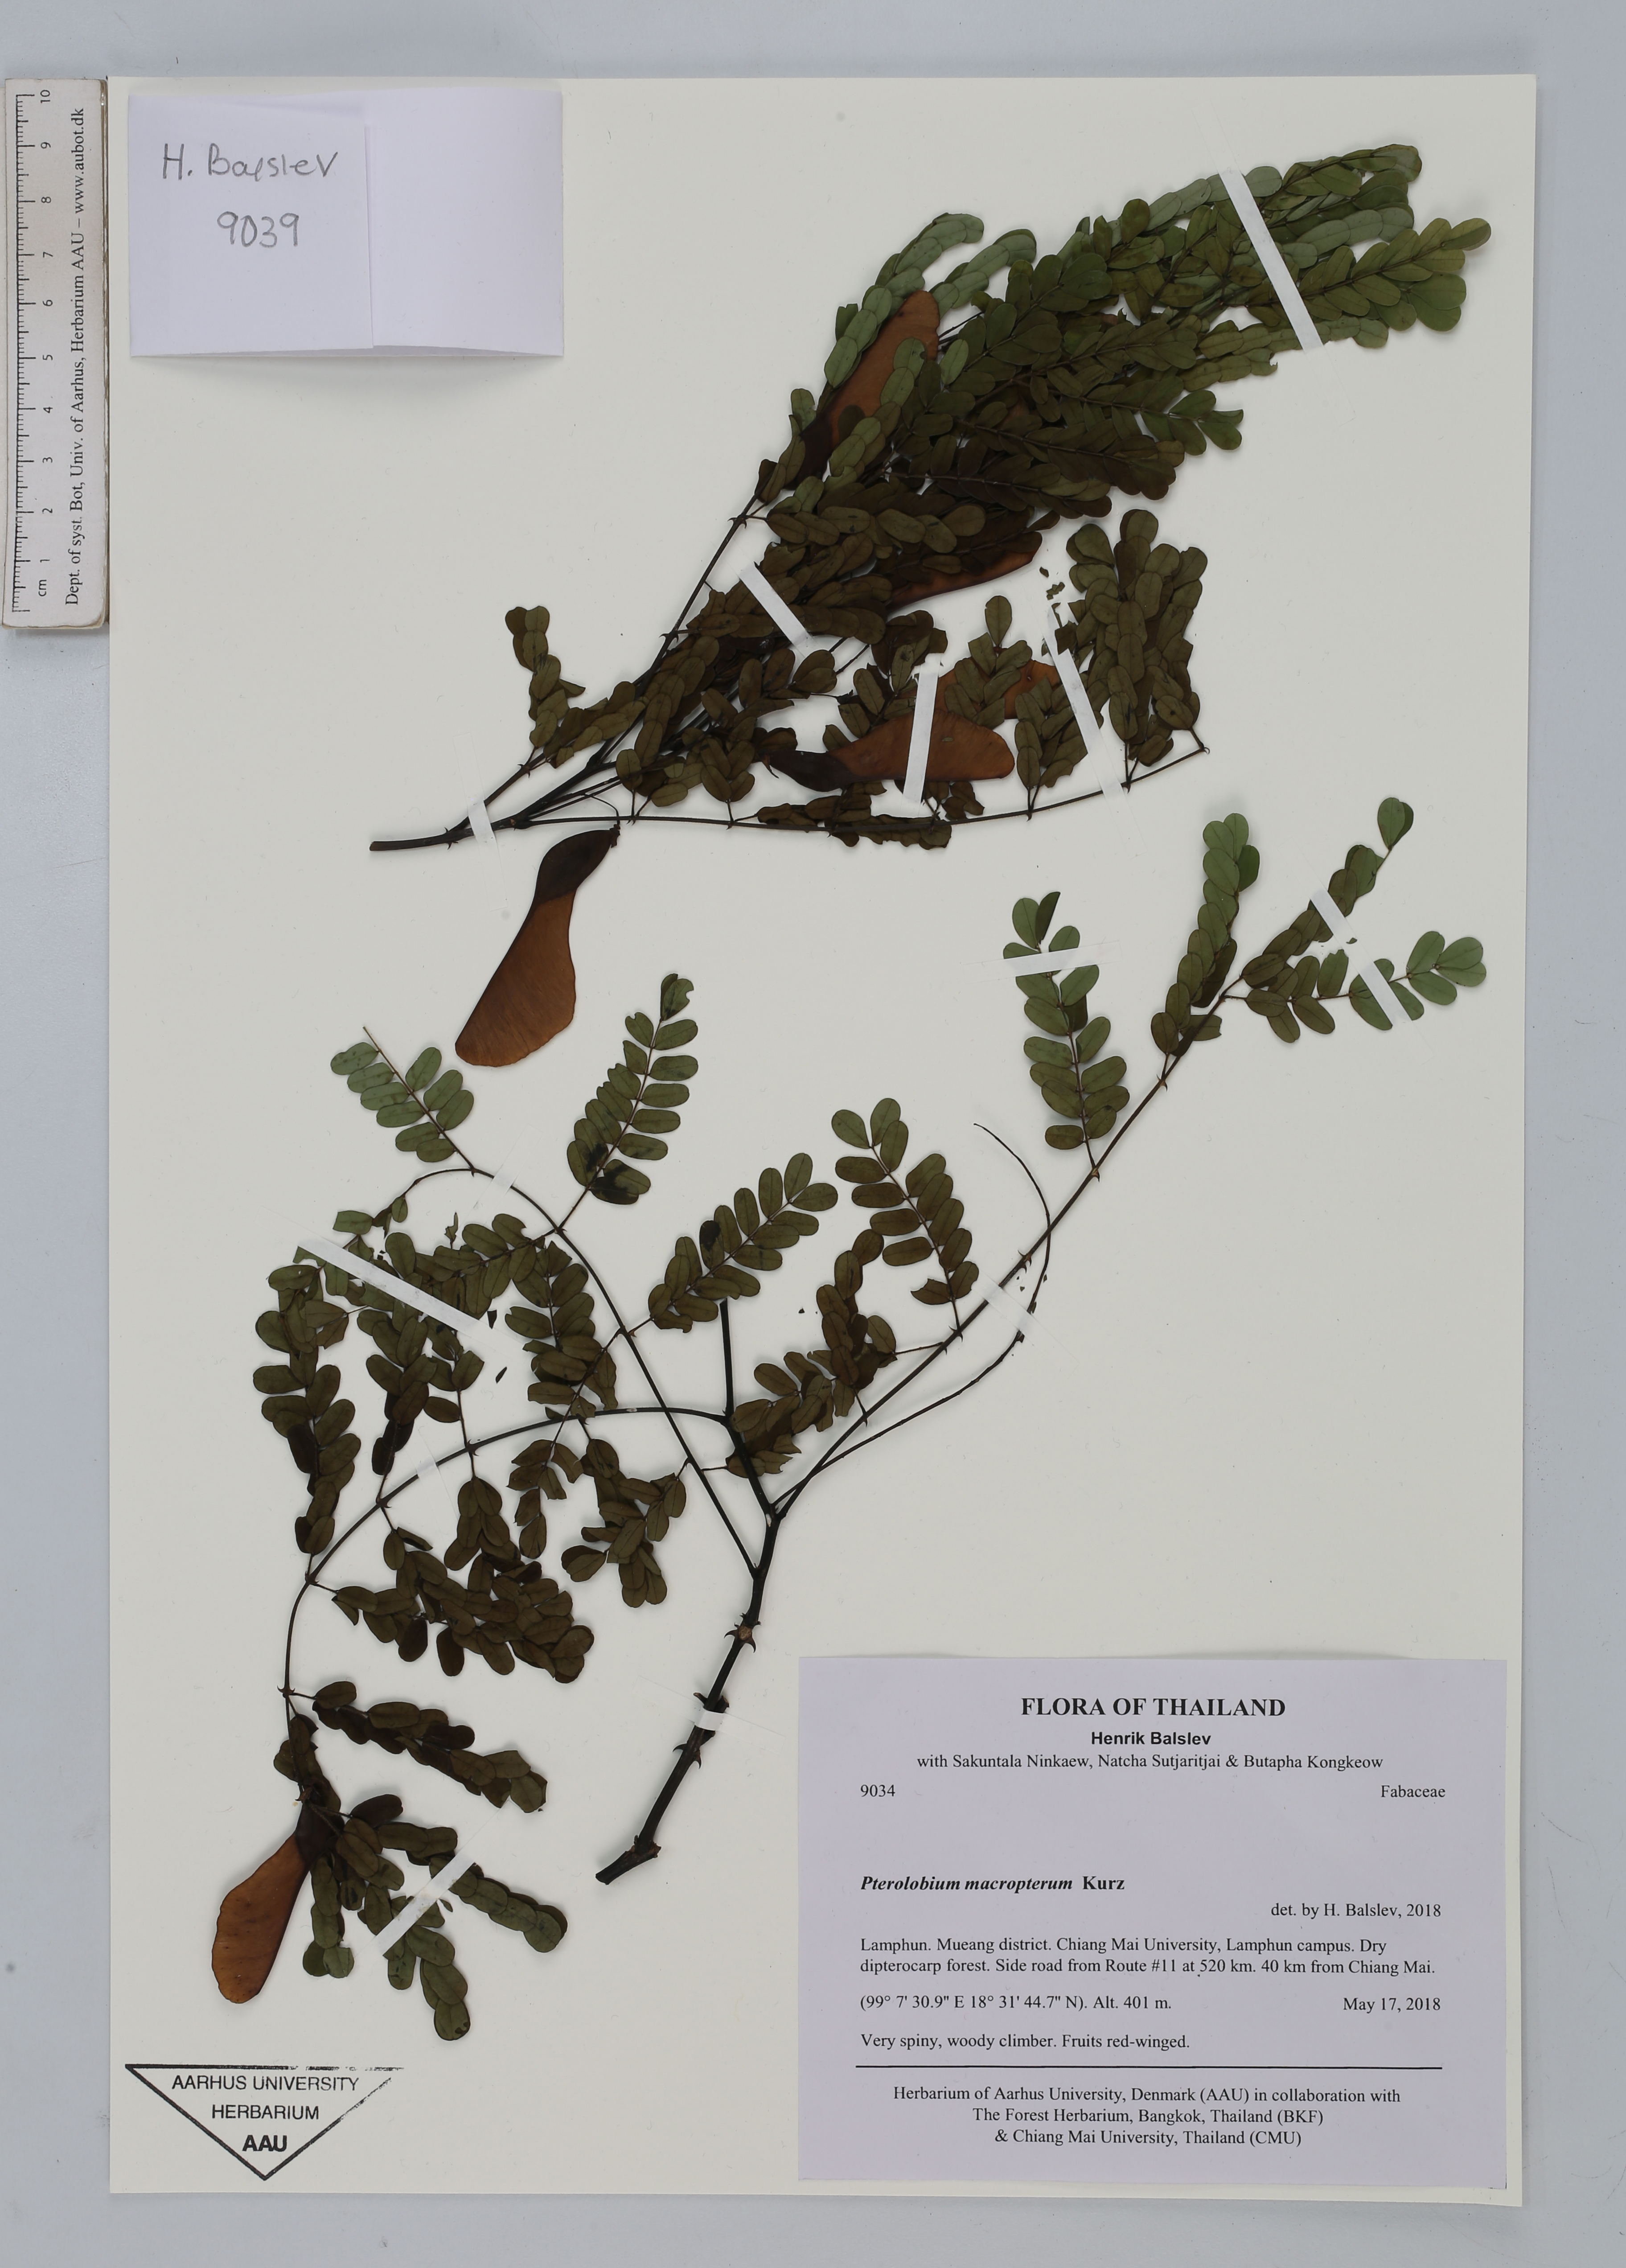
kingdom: Plantae
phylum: Tracheophyta
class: Magnoliopsida
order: Fabales
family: Fabaceae
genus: Crotalaria
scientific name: Crotalaria pallida
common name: Smooth rattlebox
